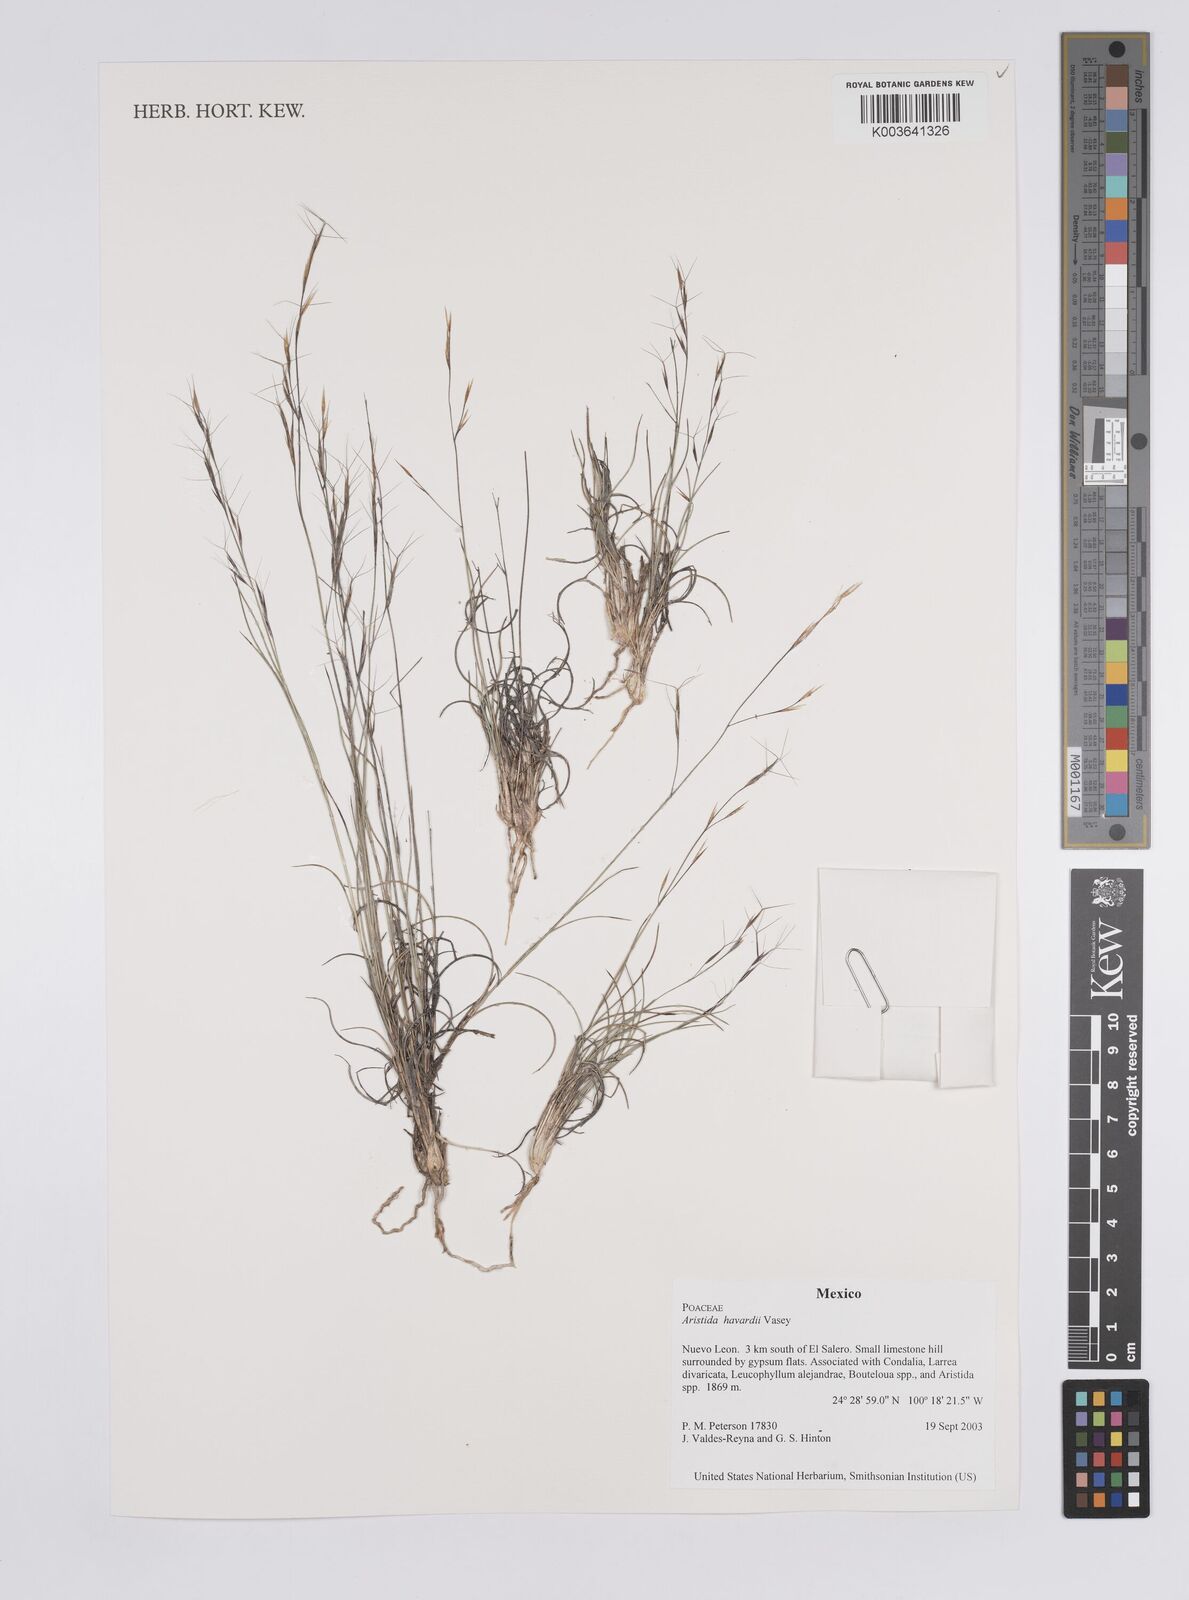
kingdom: Plantae
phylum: Tracheophyta
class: Liliopsida
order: Poales
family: Poaceae
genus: Aristida
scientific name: Aristida havardii
